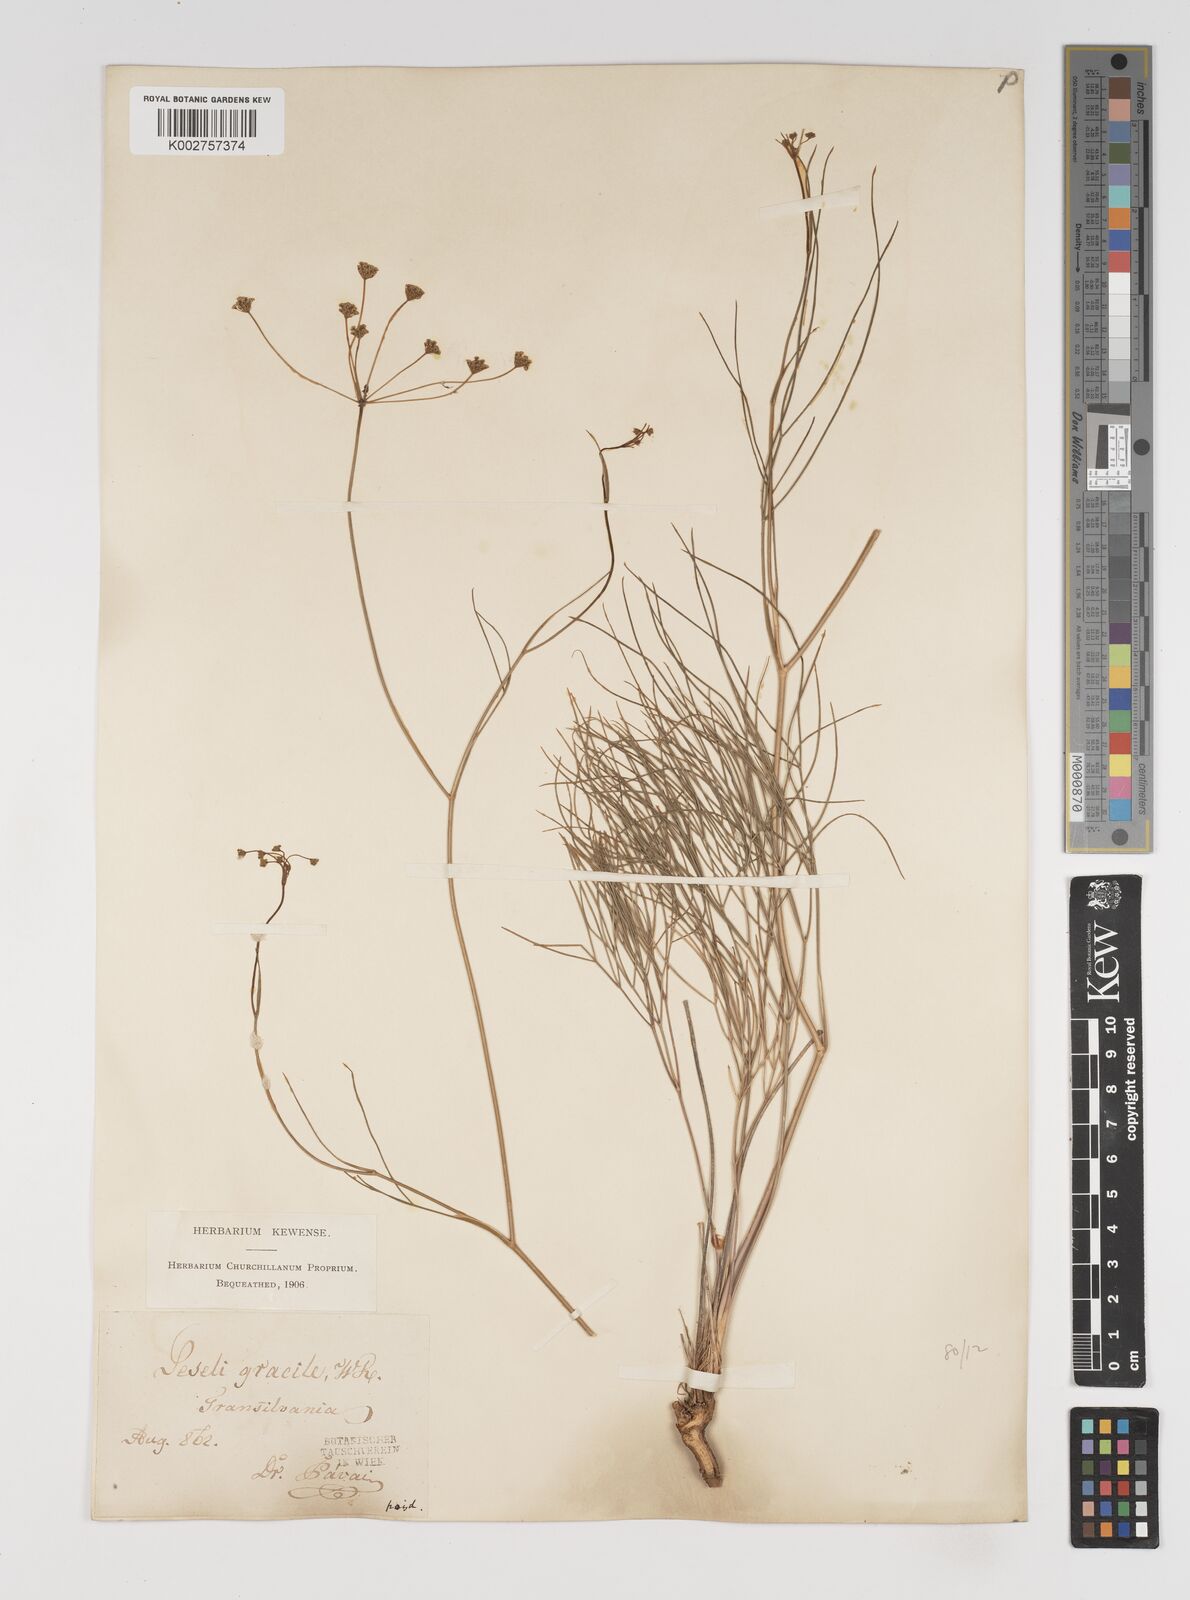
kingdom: Plantae
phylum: Tracheophyta
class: Magnoliopsida
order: Apiales
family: Apiaceae
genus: Seseli
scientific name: Seseli gracile
